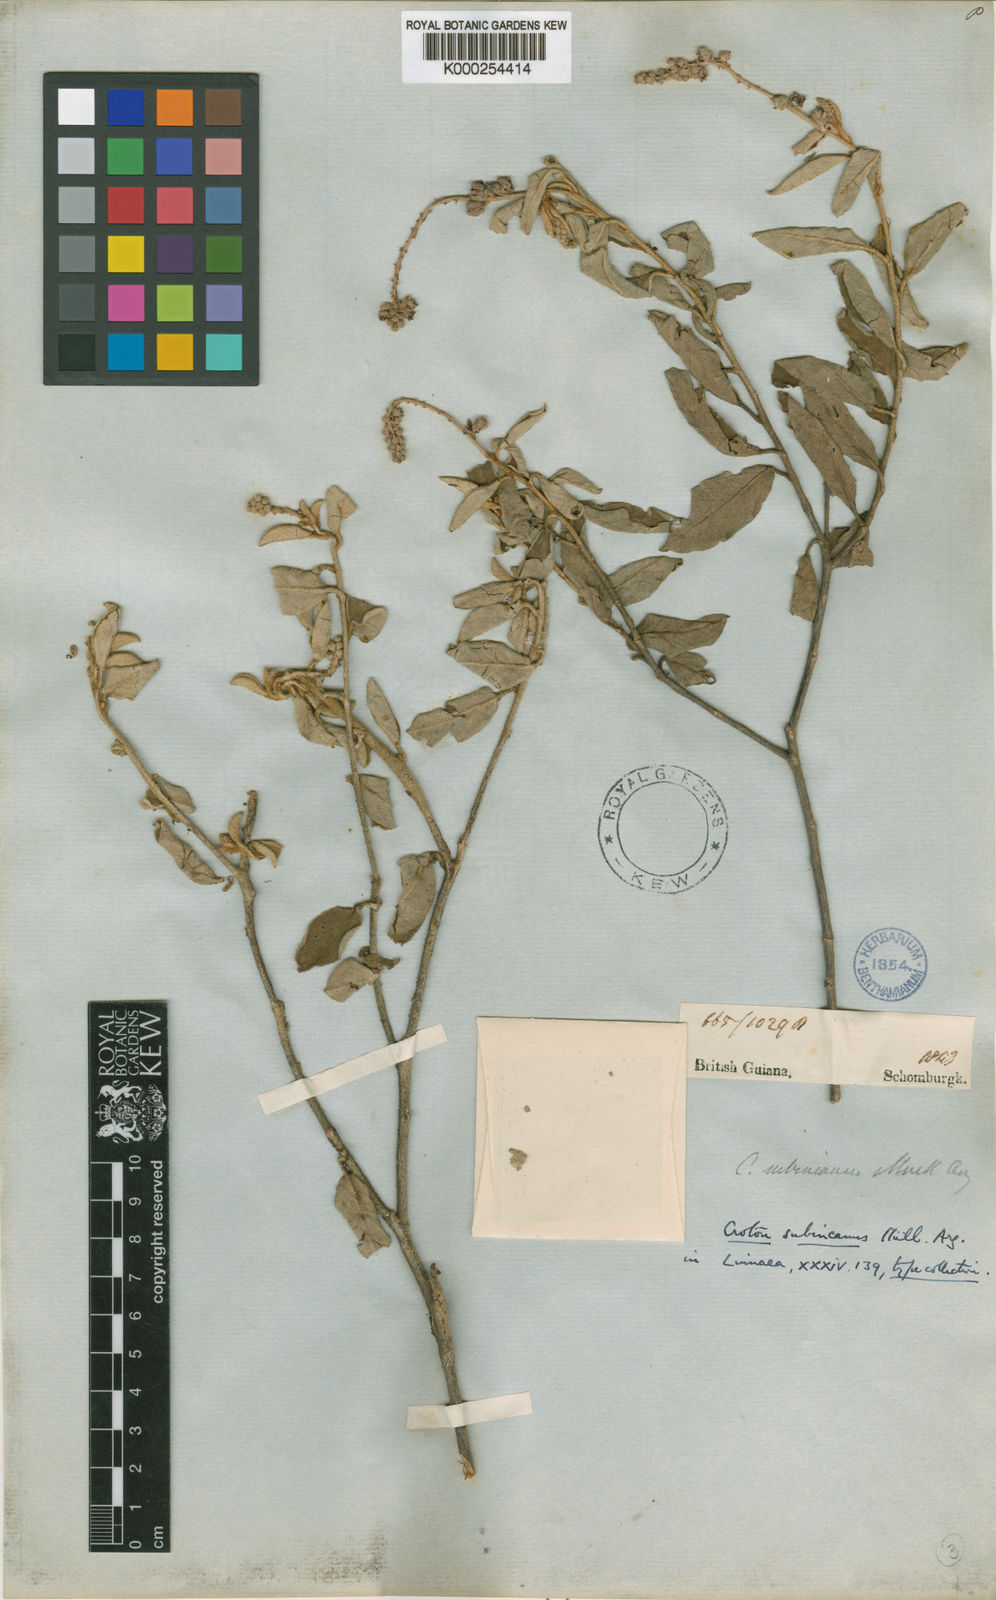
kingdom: Plantae
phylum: Tracheophyta
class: Magnoliopsida
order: Malpighiales
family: Euphorbiaceae
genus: Croton
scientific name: Croton
